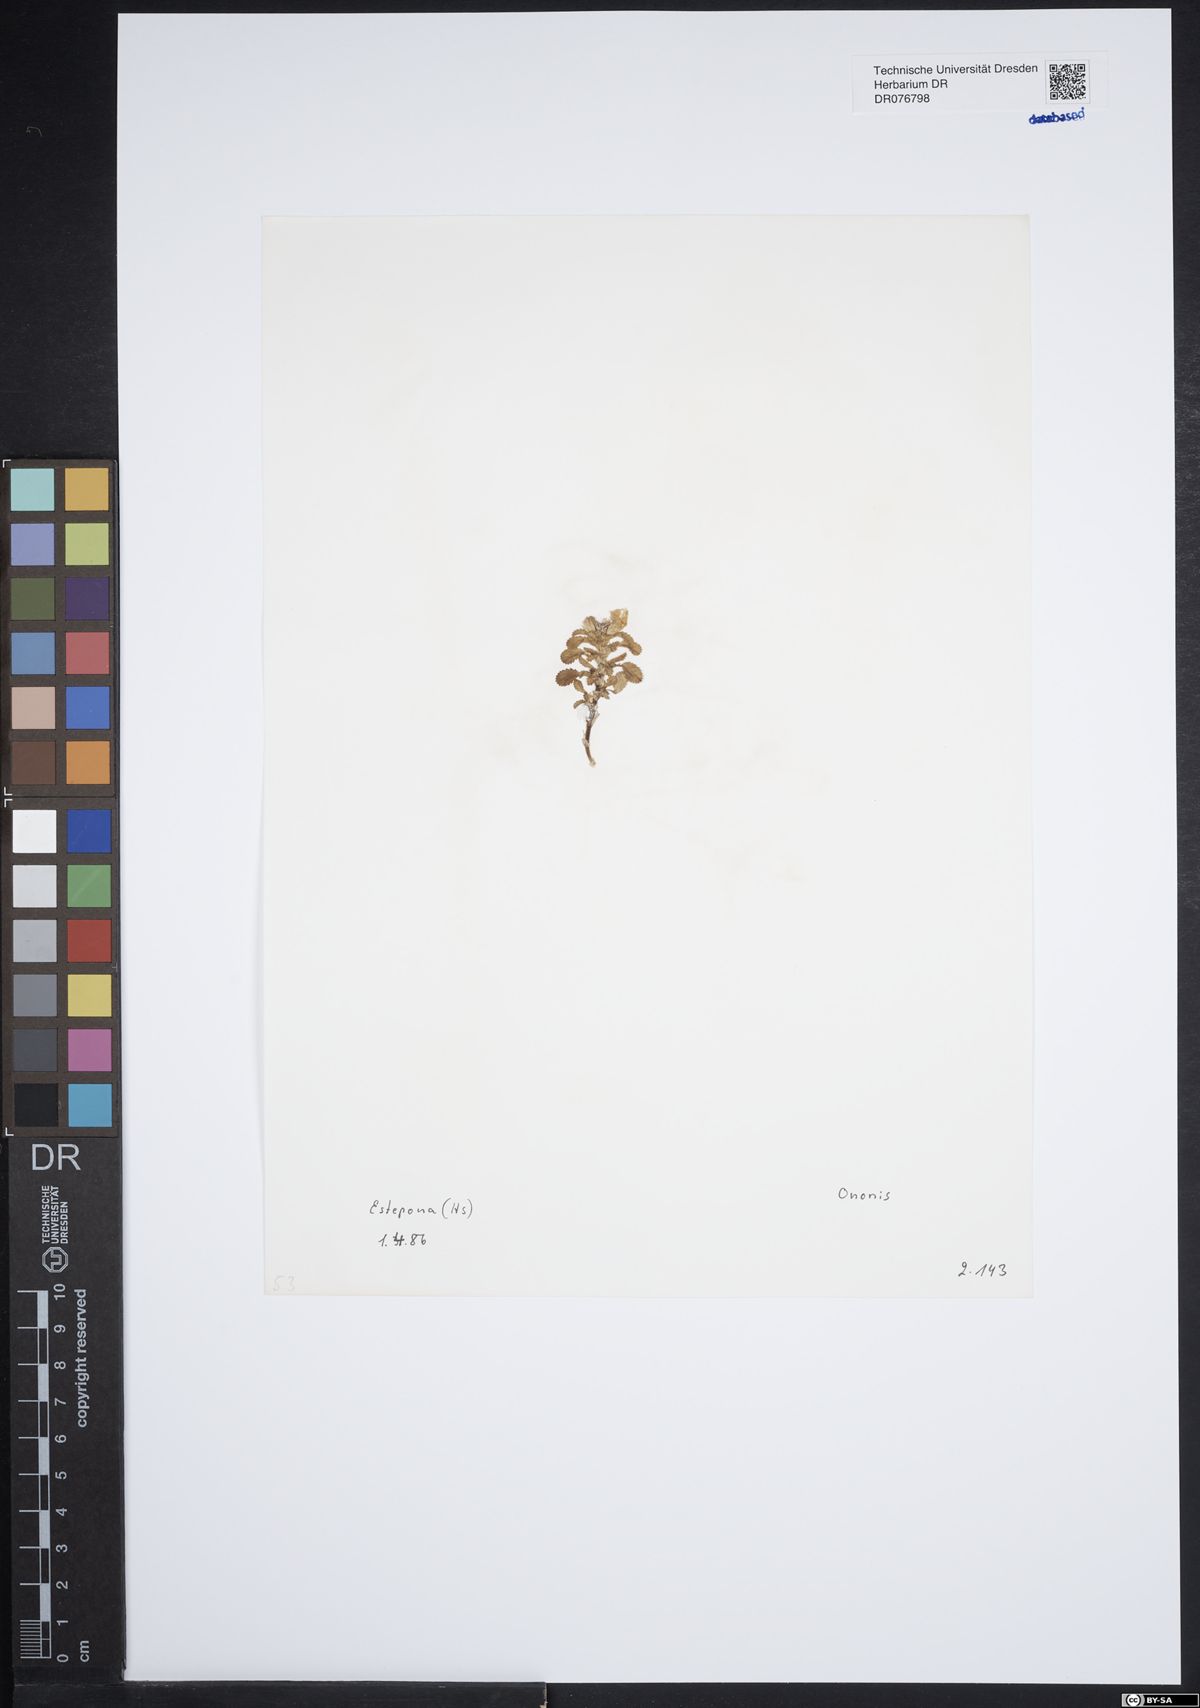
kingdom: Plantae
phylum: Tracheophyta
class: Magnoliopsida
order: Fabales
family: Fabaceae
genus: Ononis
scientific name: Ononis
